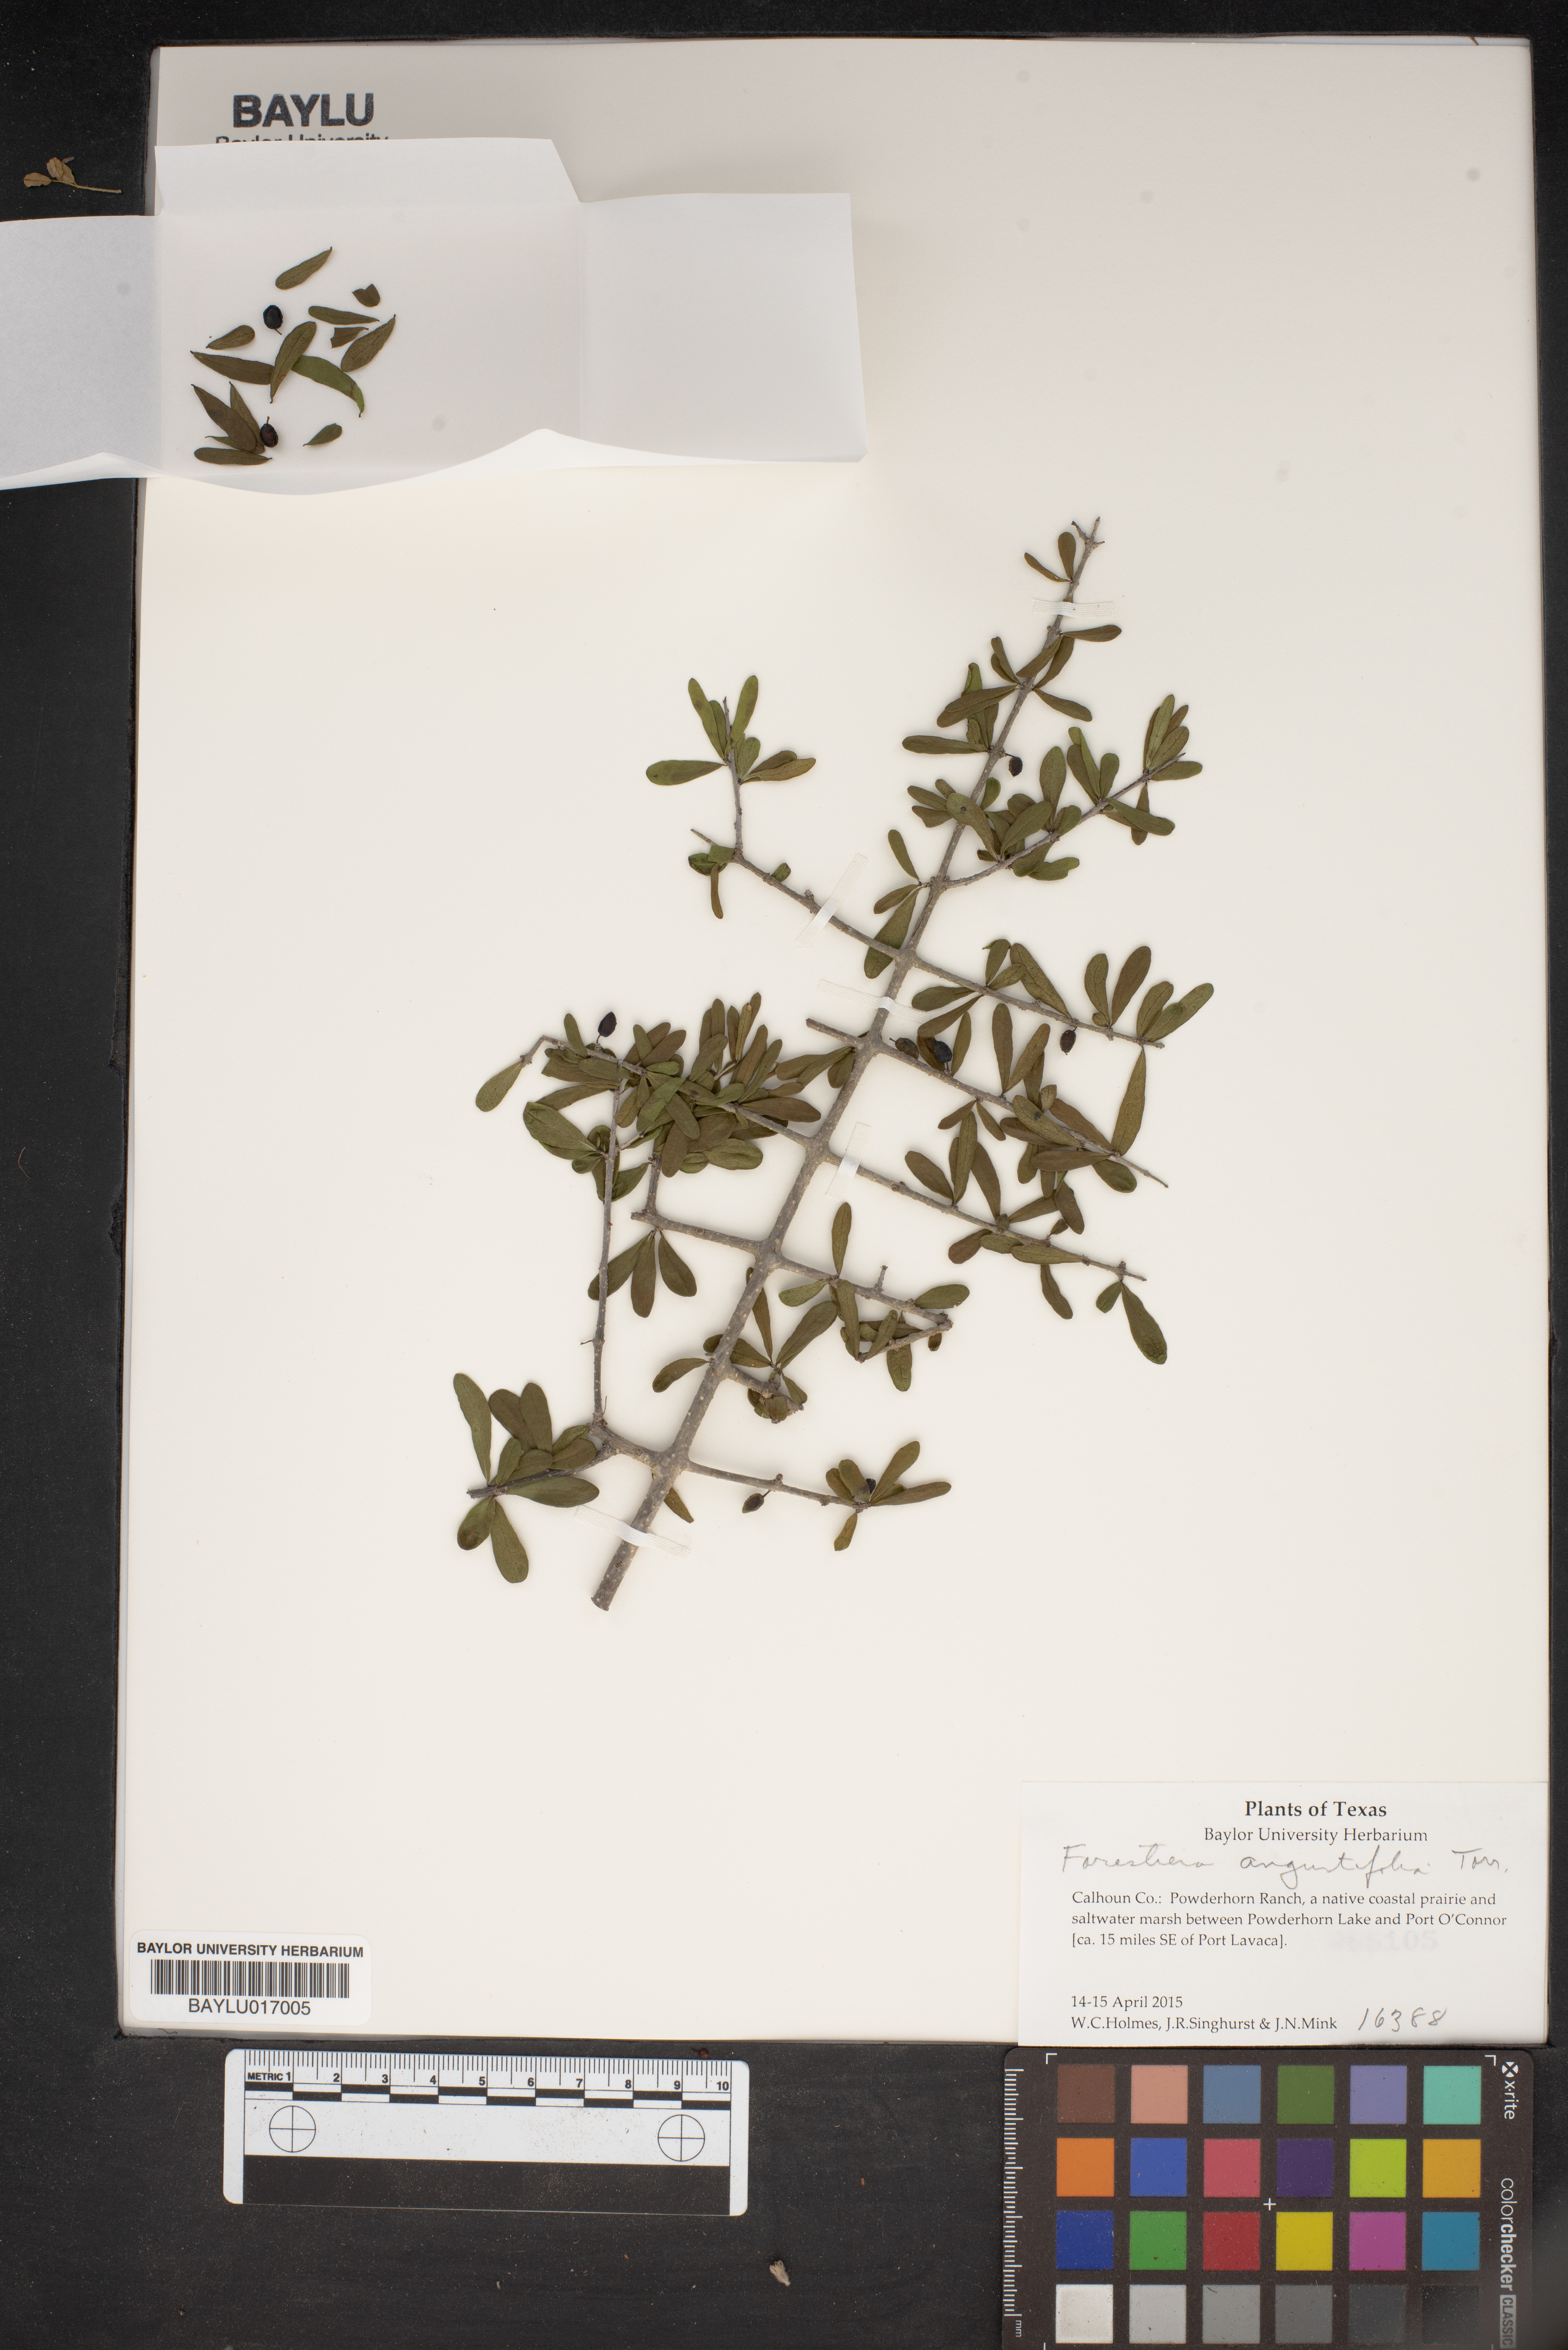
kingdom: Plantae
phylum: Tracheophyta
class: Magnoliopsida
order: Lamiales
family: Oleaceae
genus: Forestiera
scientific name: Forestiera angustifolia
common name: Elbowbush
